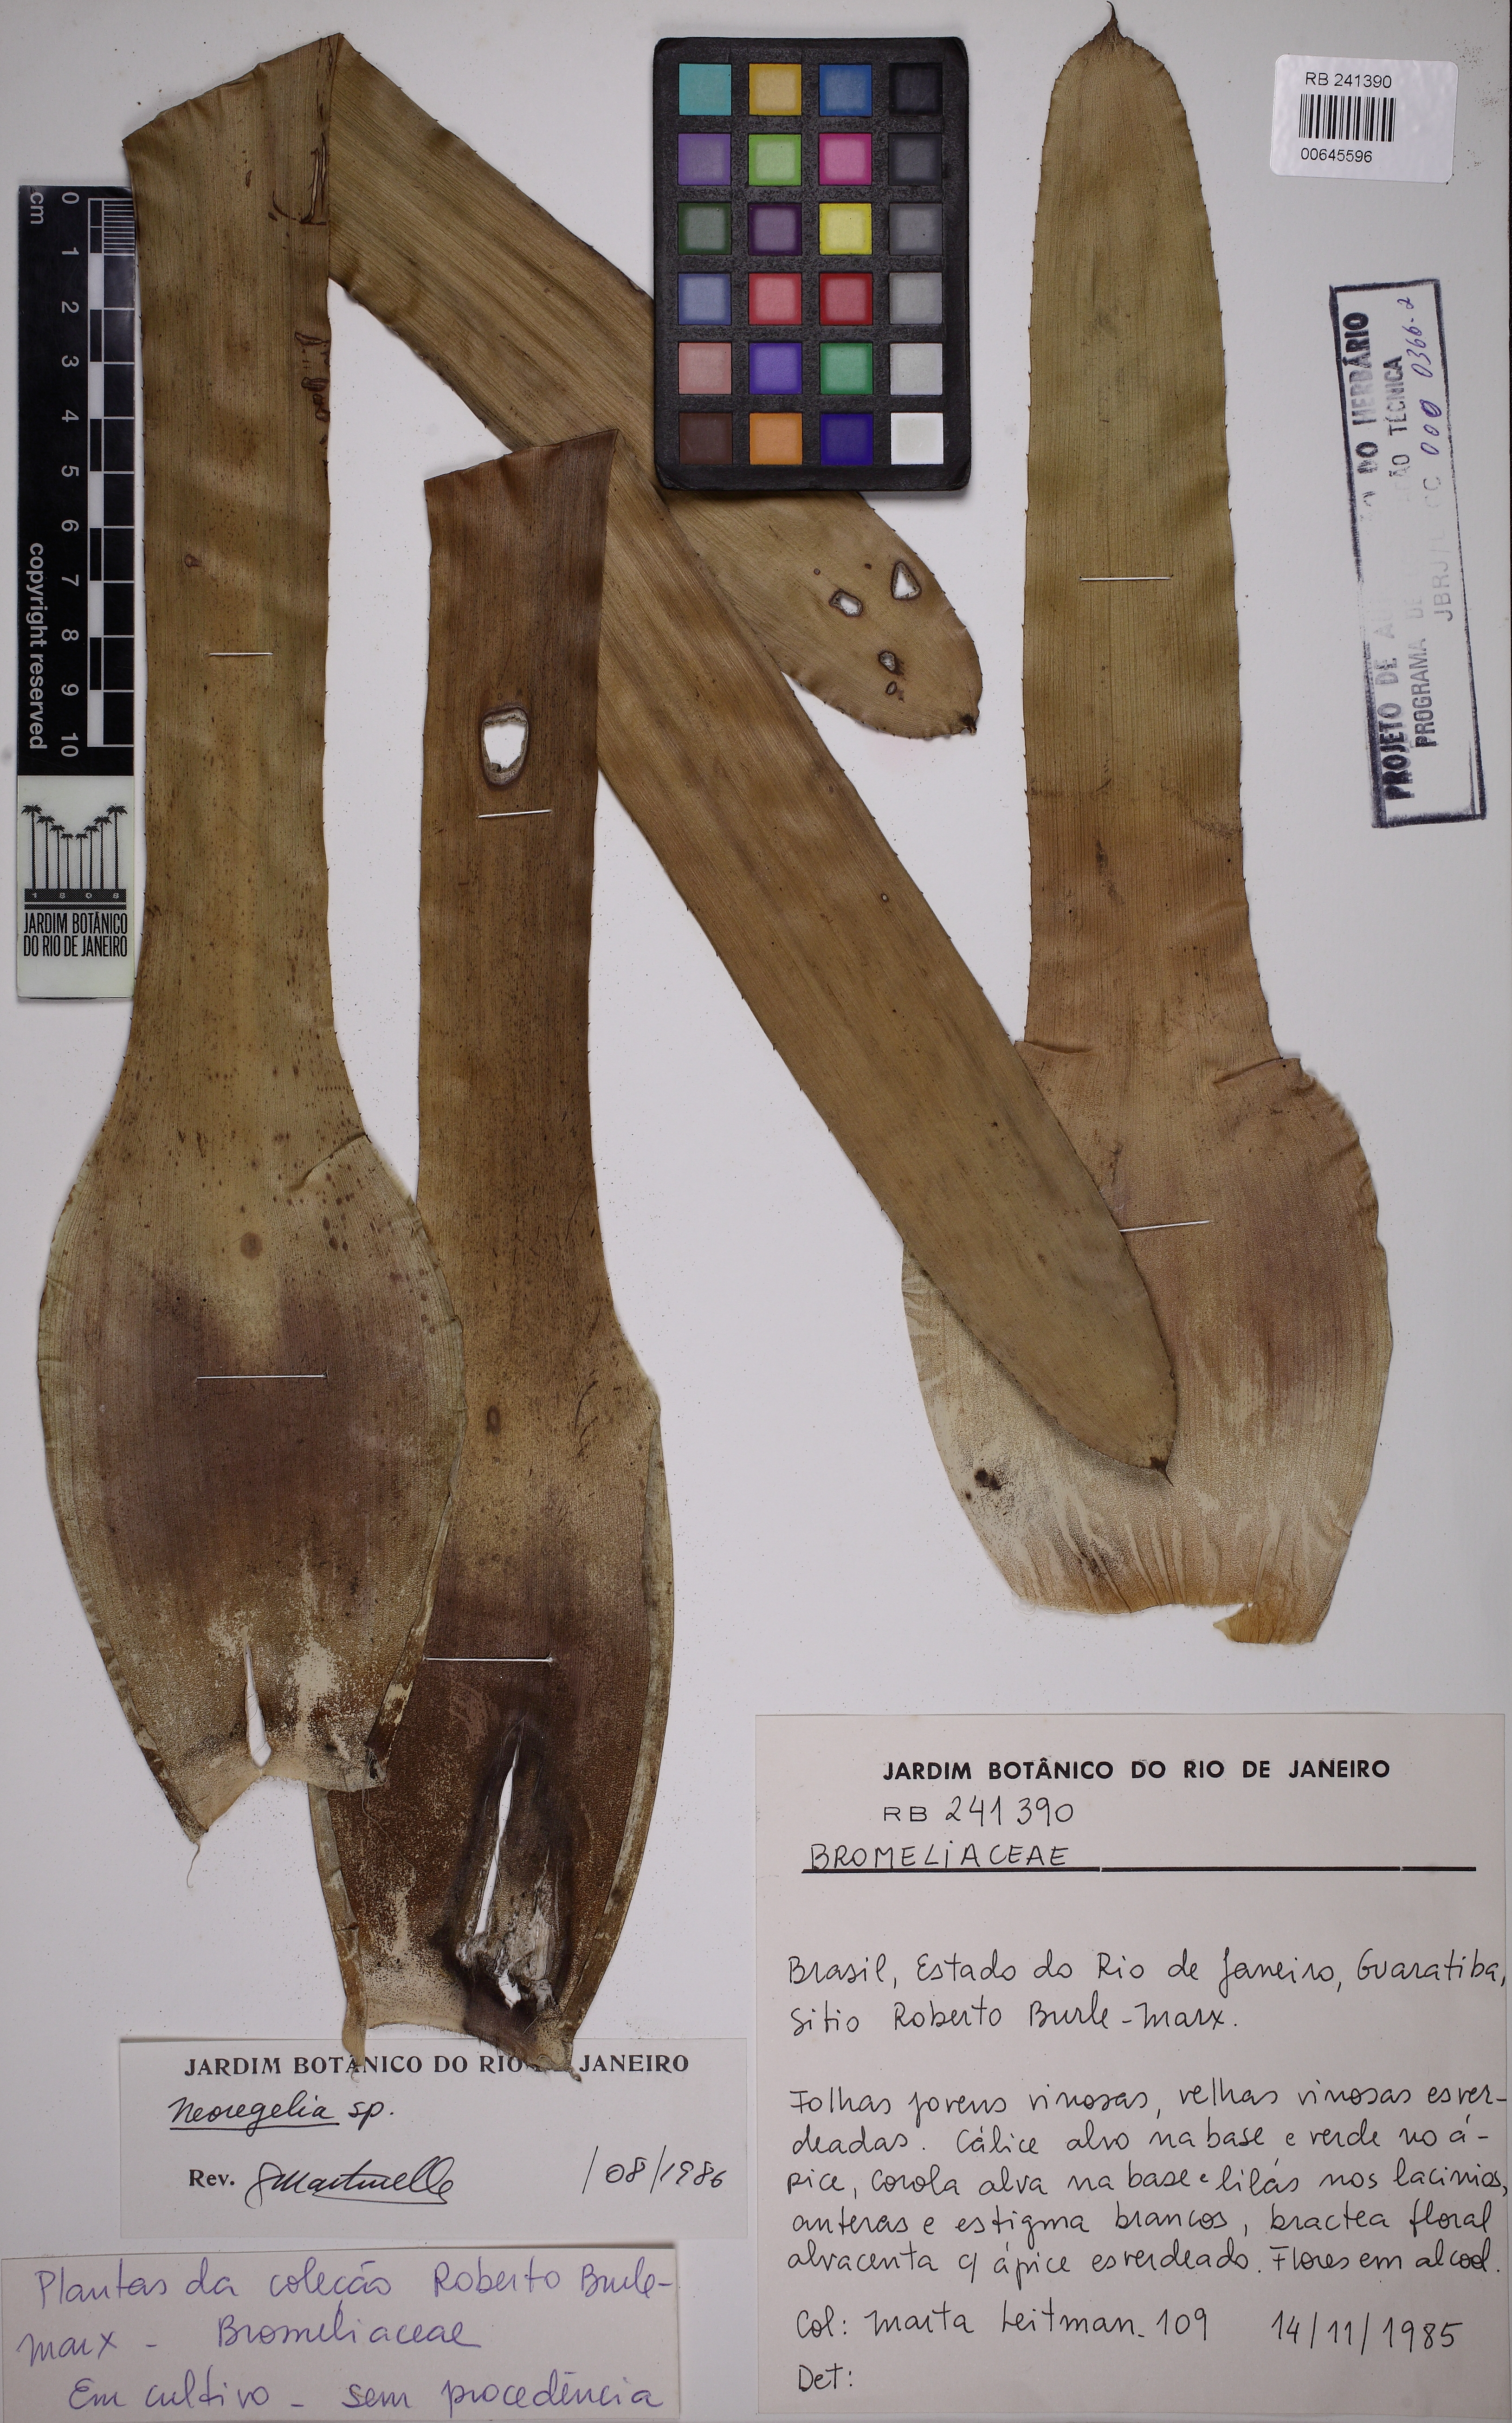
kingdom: Plantae
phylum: Tracheophyta
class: Liliopsida
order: Poales
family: Bromeliaceae
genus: Neoregelia
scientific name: Neoregelia
